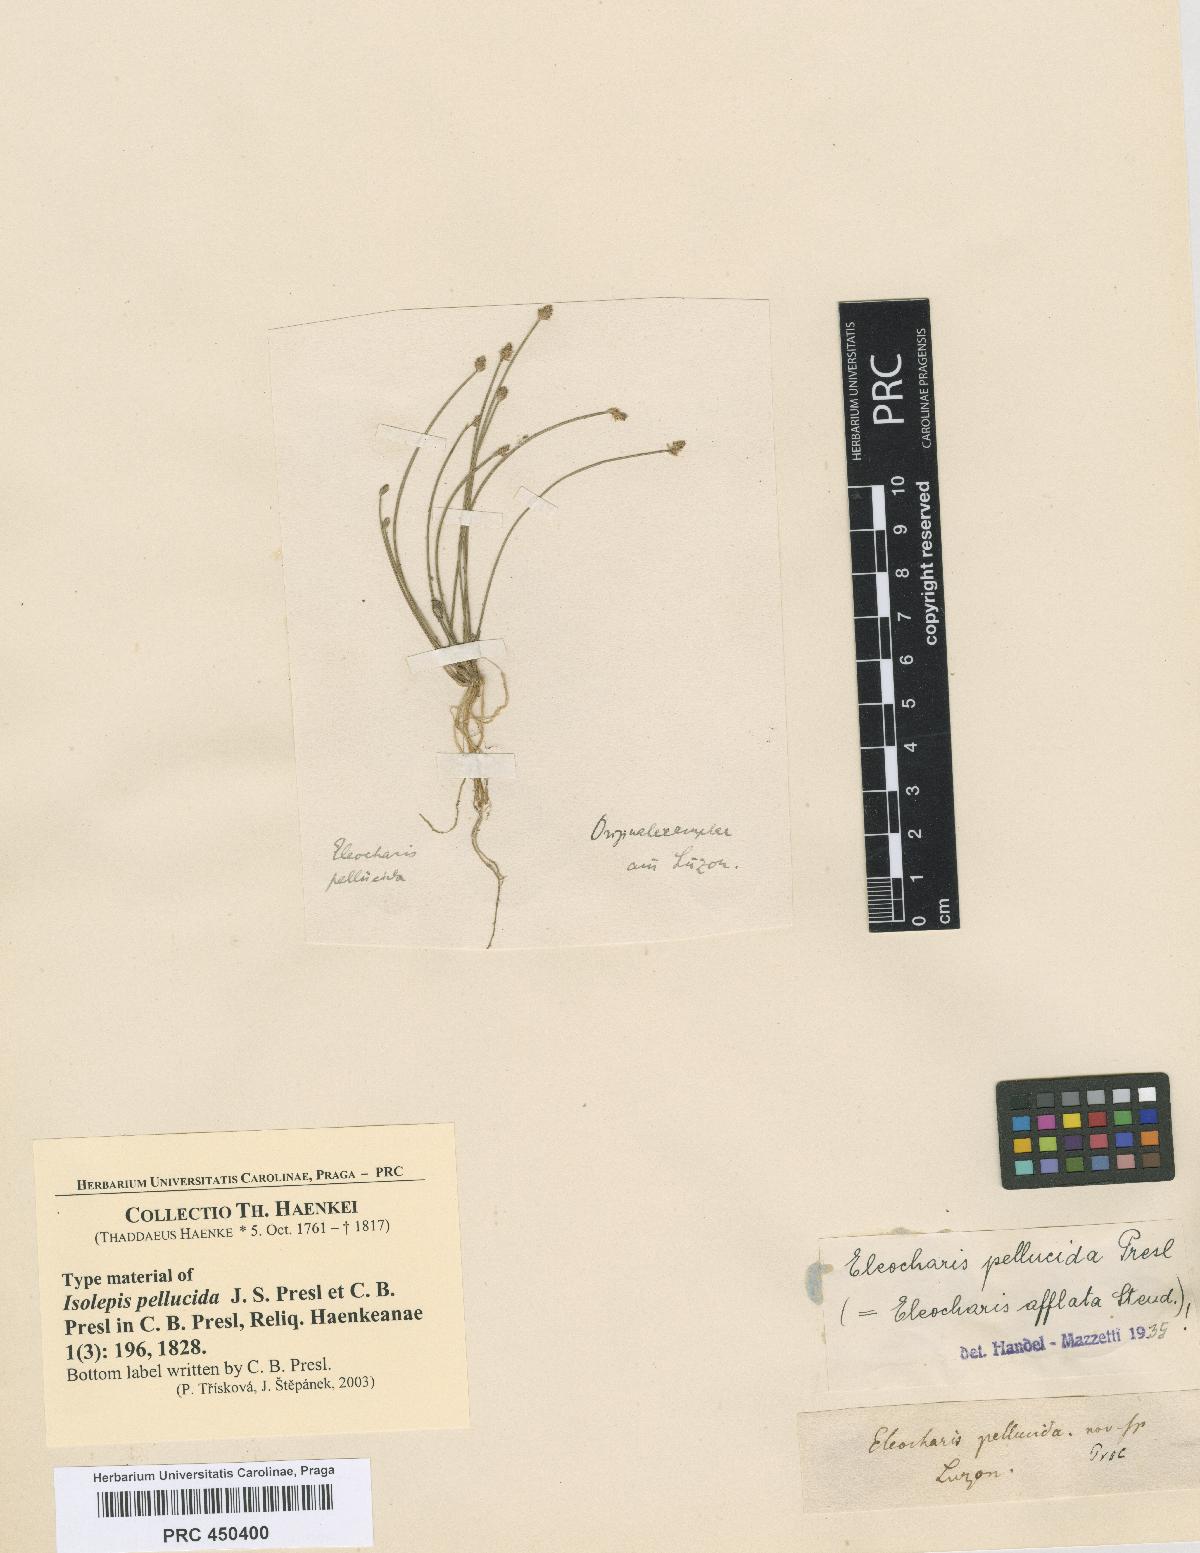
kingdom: Plantae
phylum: Tracheophyta
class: Liliopsida
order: Poales
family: Cyperaceae
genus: Eleocharis
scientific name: Eleocharis pellucida
